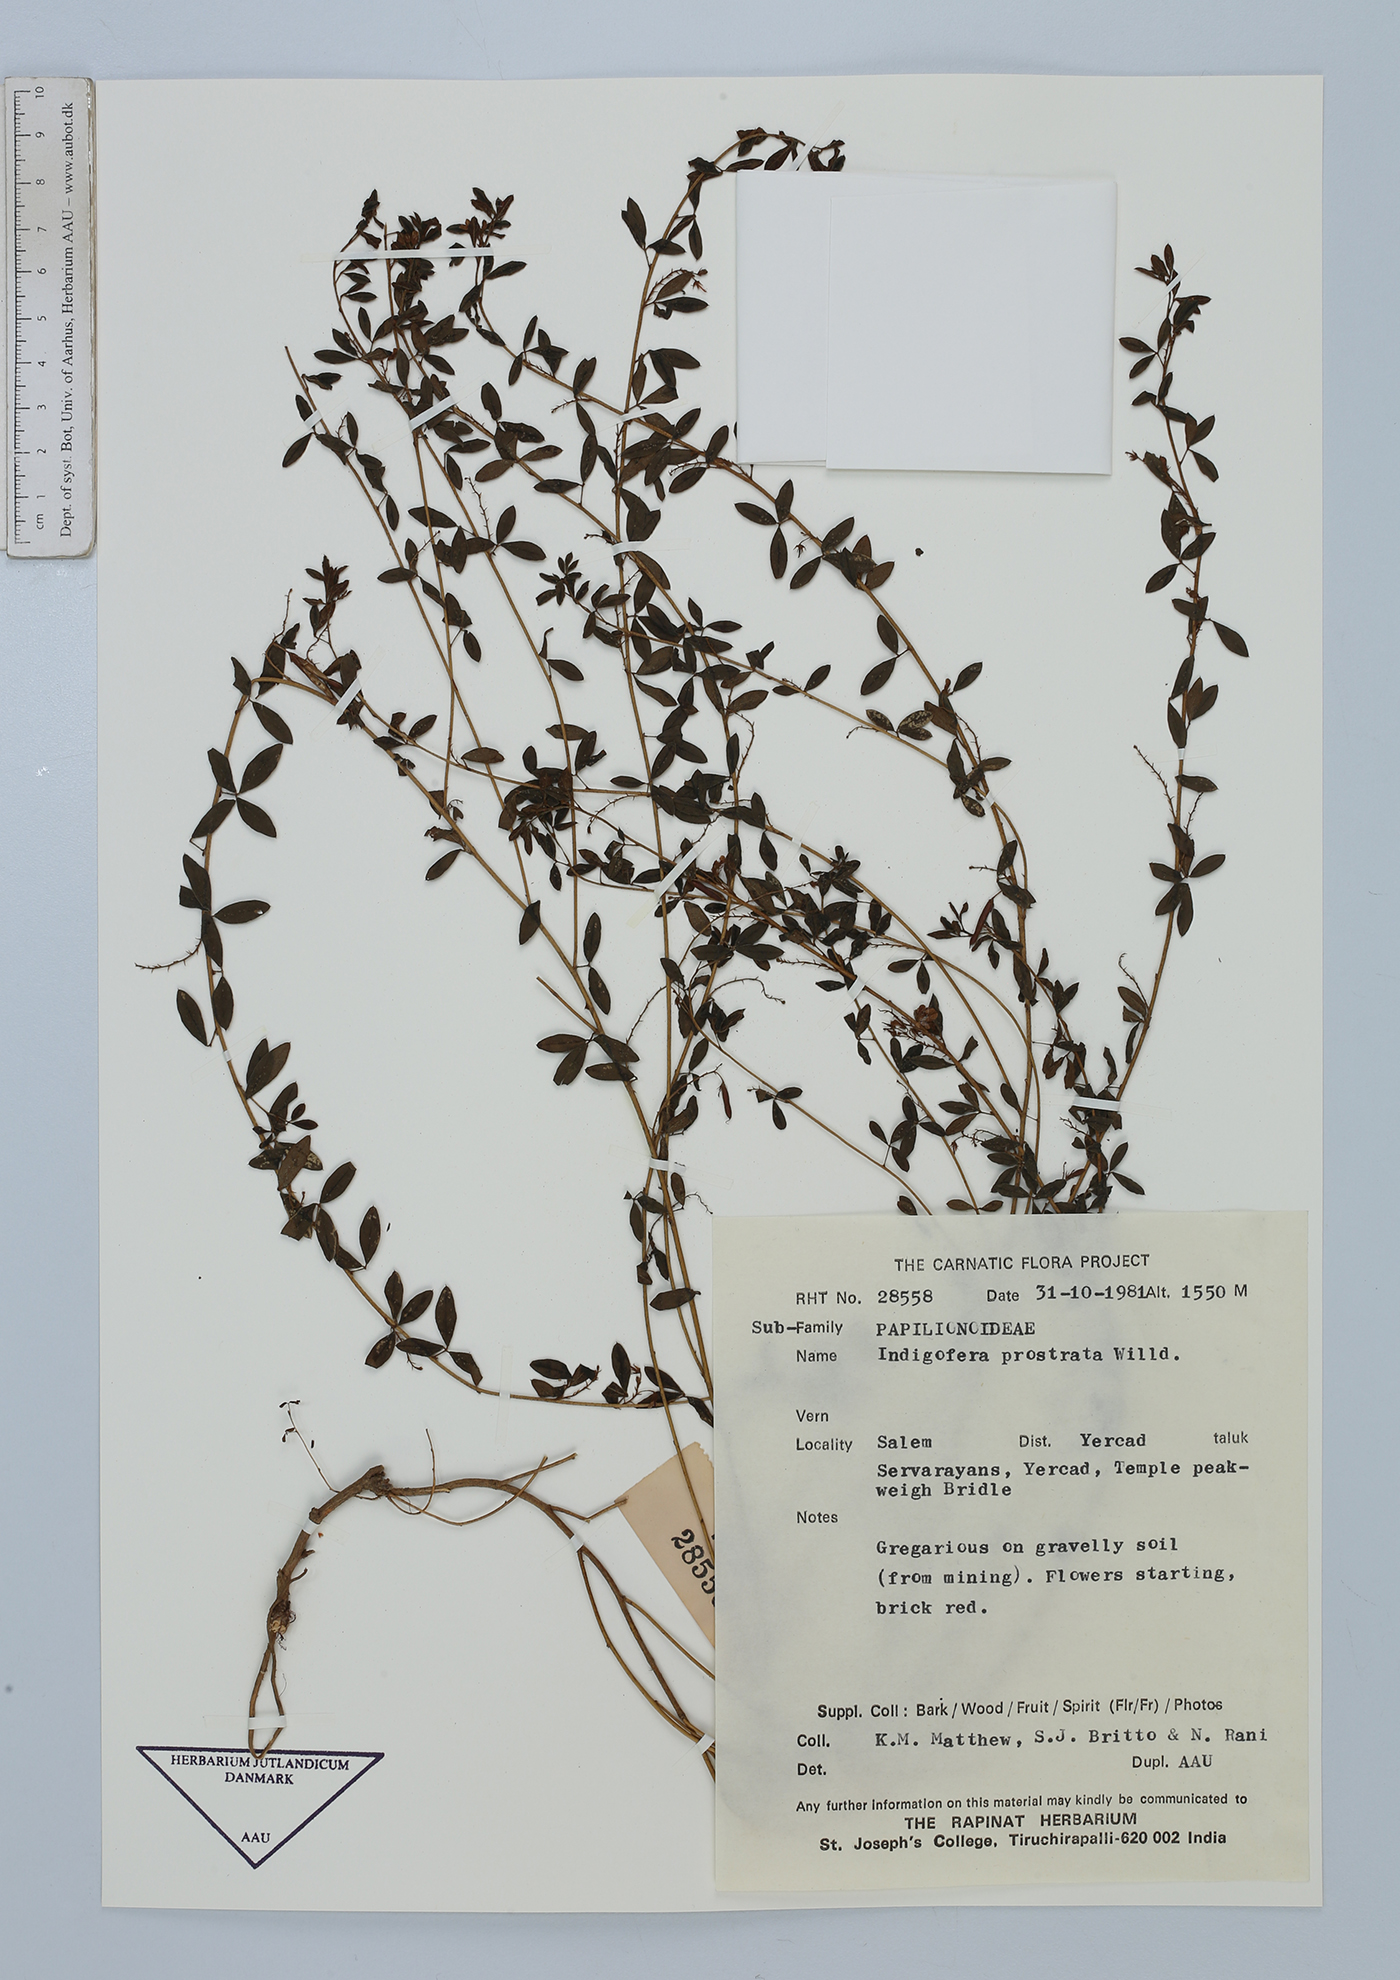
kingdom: Plantae
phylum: Tracheophyta
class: Magnoliopsida
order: Fabales
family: Fabaceae
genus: Indigofera
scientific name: Indigofera prostrata
